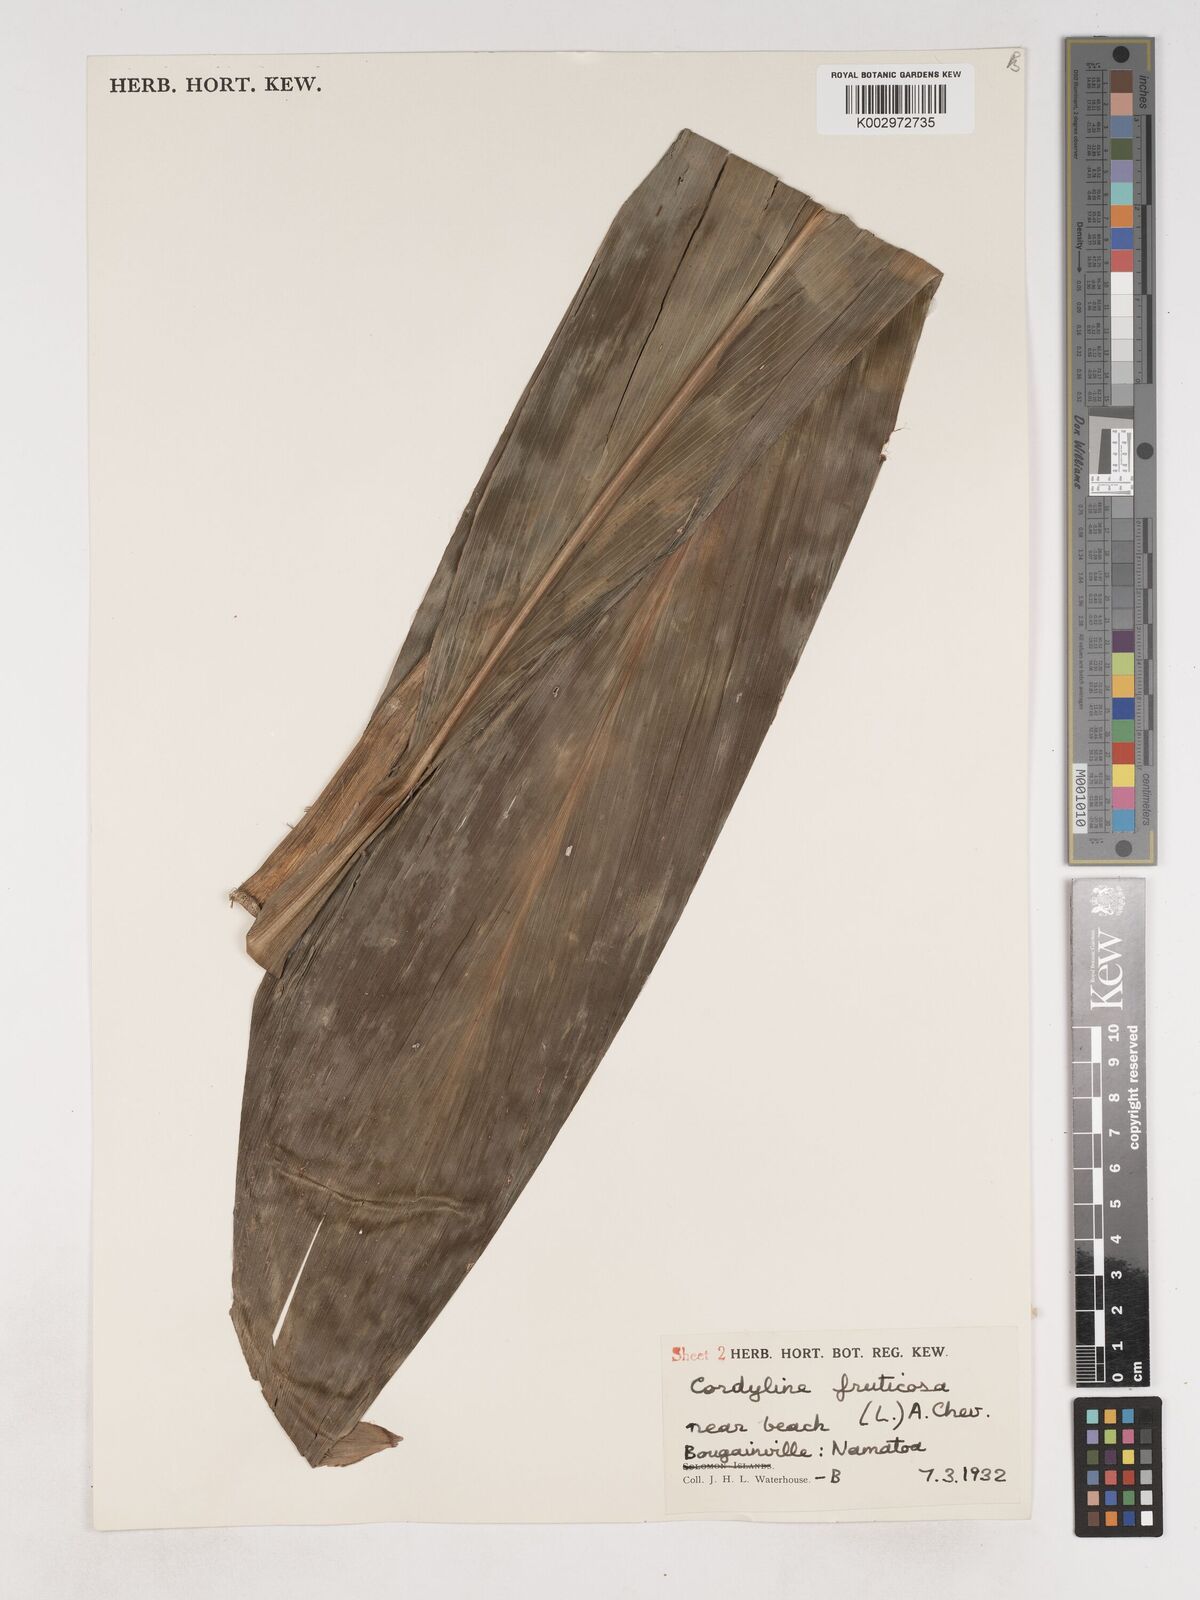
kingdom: Plantae
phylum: Tracheophyta
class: Liliopsida
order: Asparagales
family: Asparagaceae
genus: Cordyline
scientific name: Cordyline fruticosa
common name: Good-luck-plant
